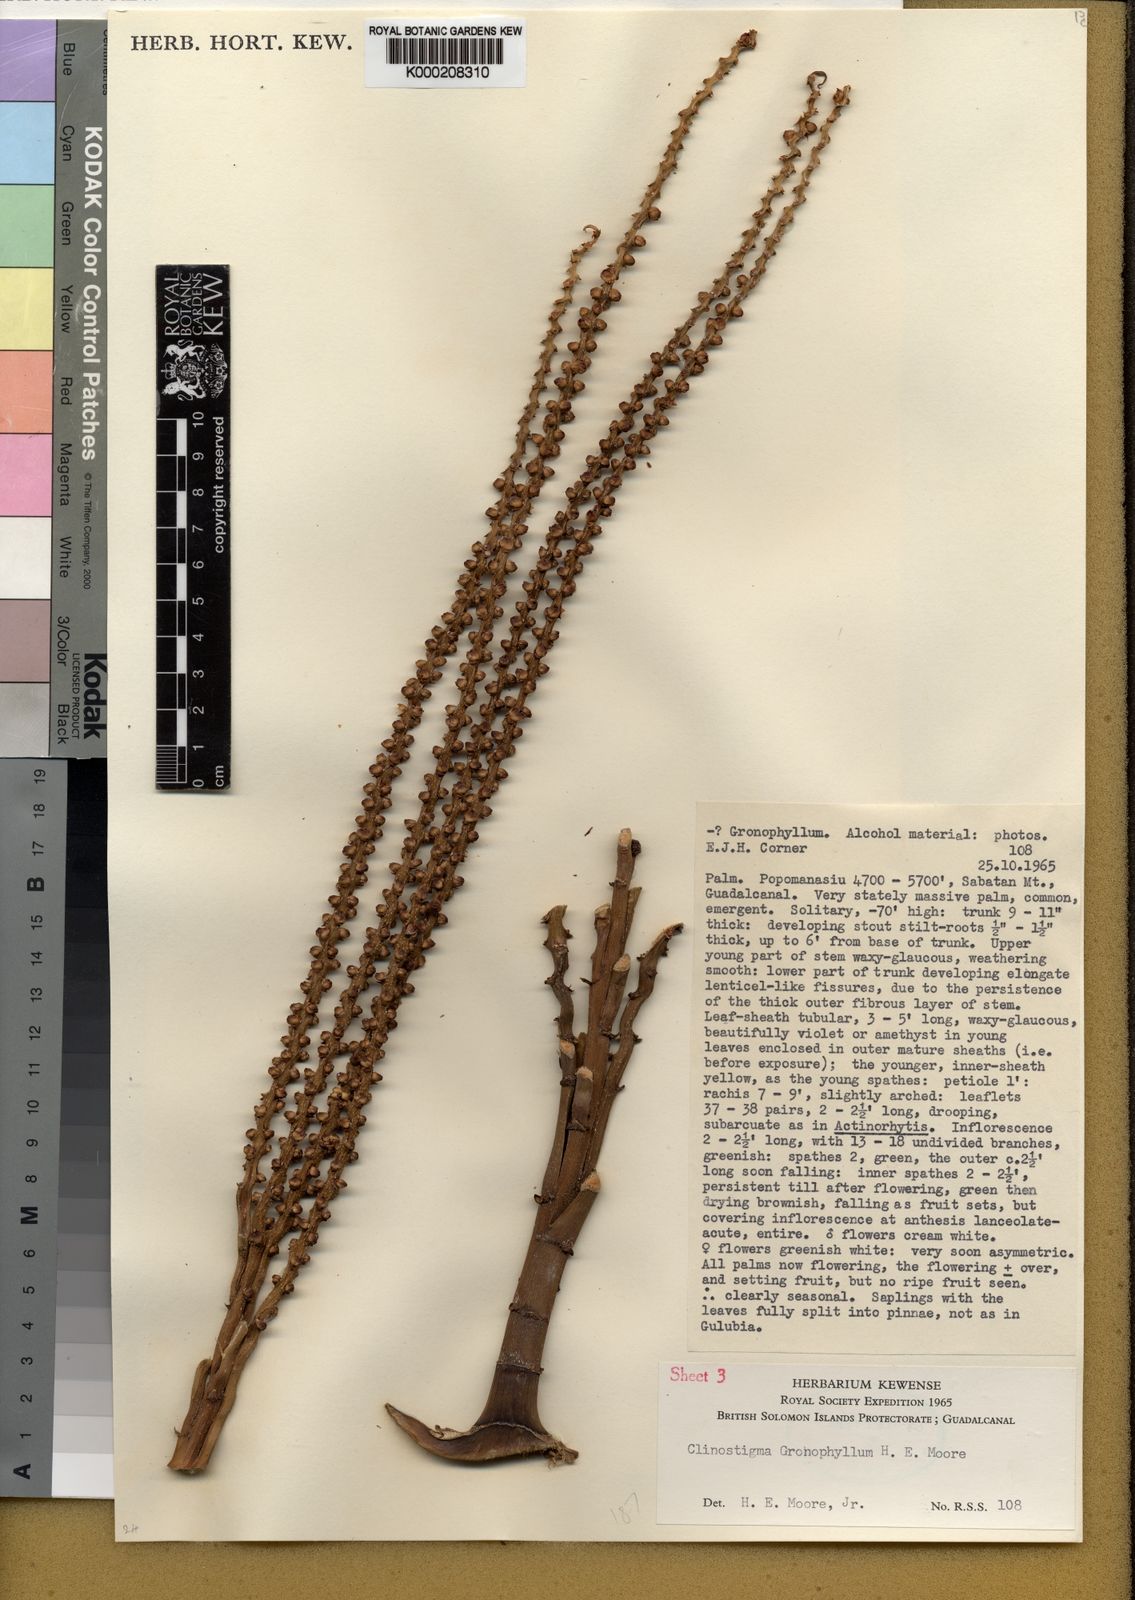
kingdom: Plantae
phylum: Tracheophyta
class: Liliopsida
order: Arecales
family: Arecaceae
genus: Clinostigma
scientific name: Clinostigma gronophyllum
